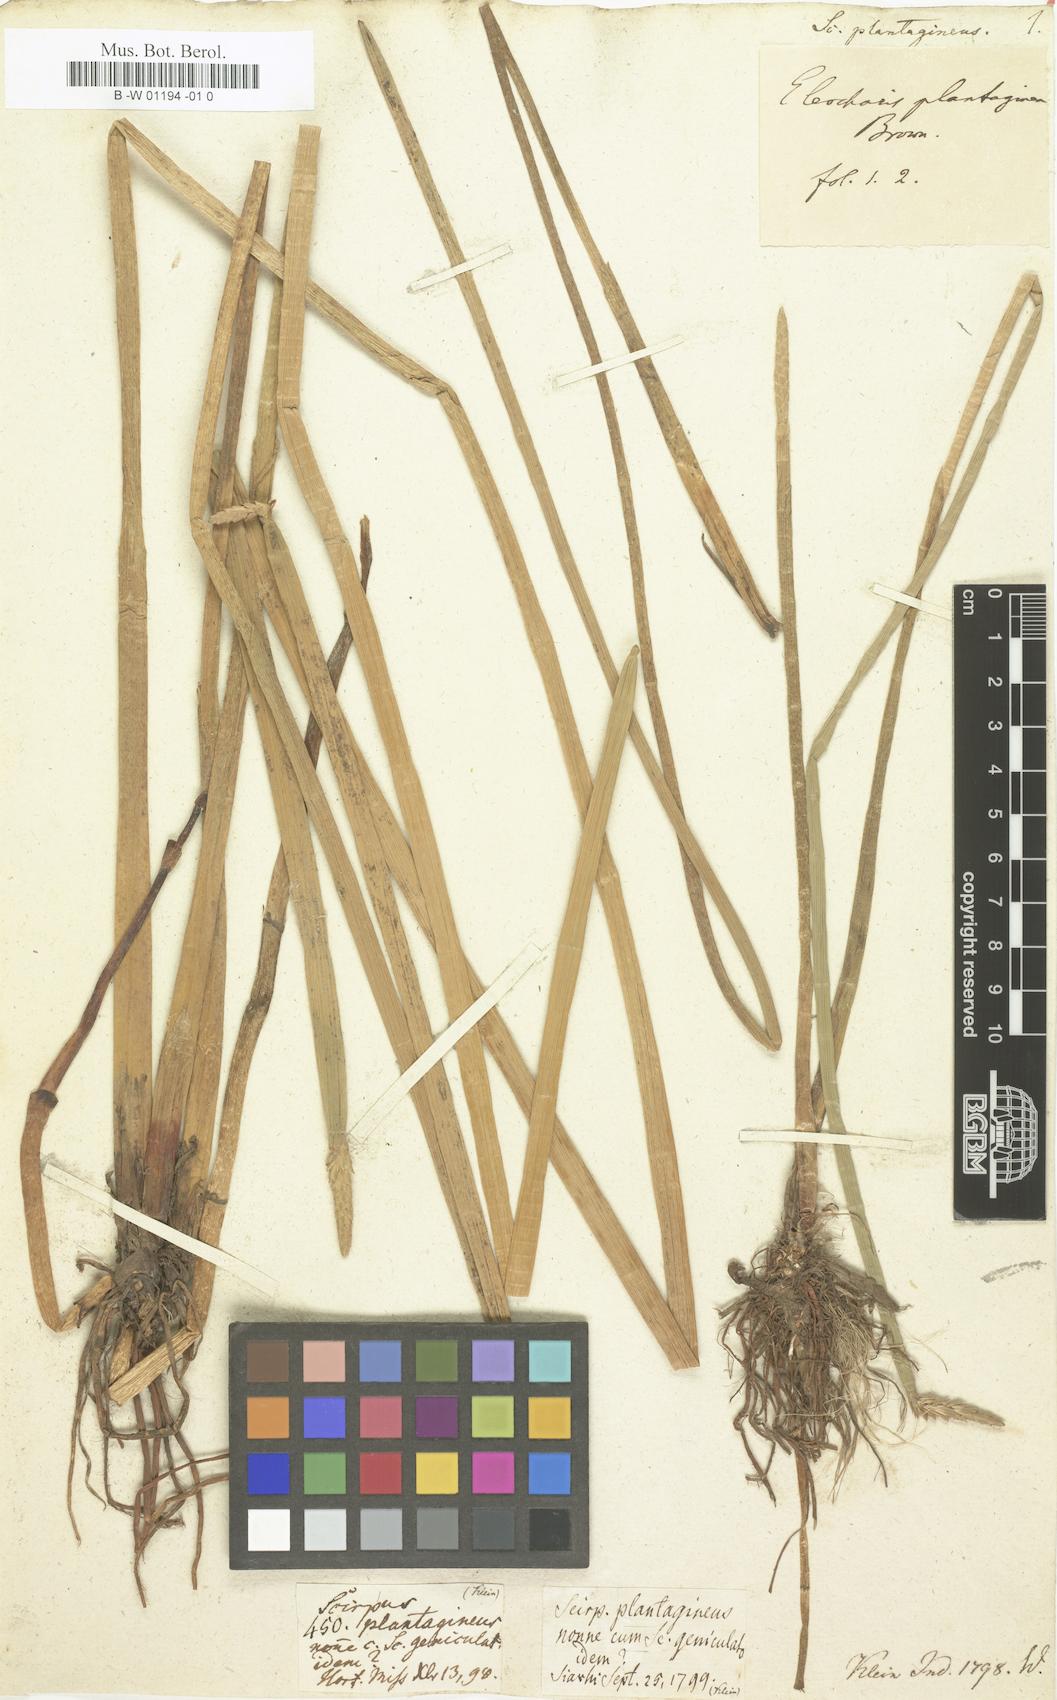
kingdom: Plantae
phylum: Tracheophyta
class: Liliopsida
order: Poales
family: Cyperaceae
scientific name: Cyperaceae
